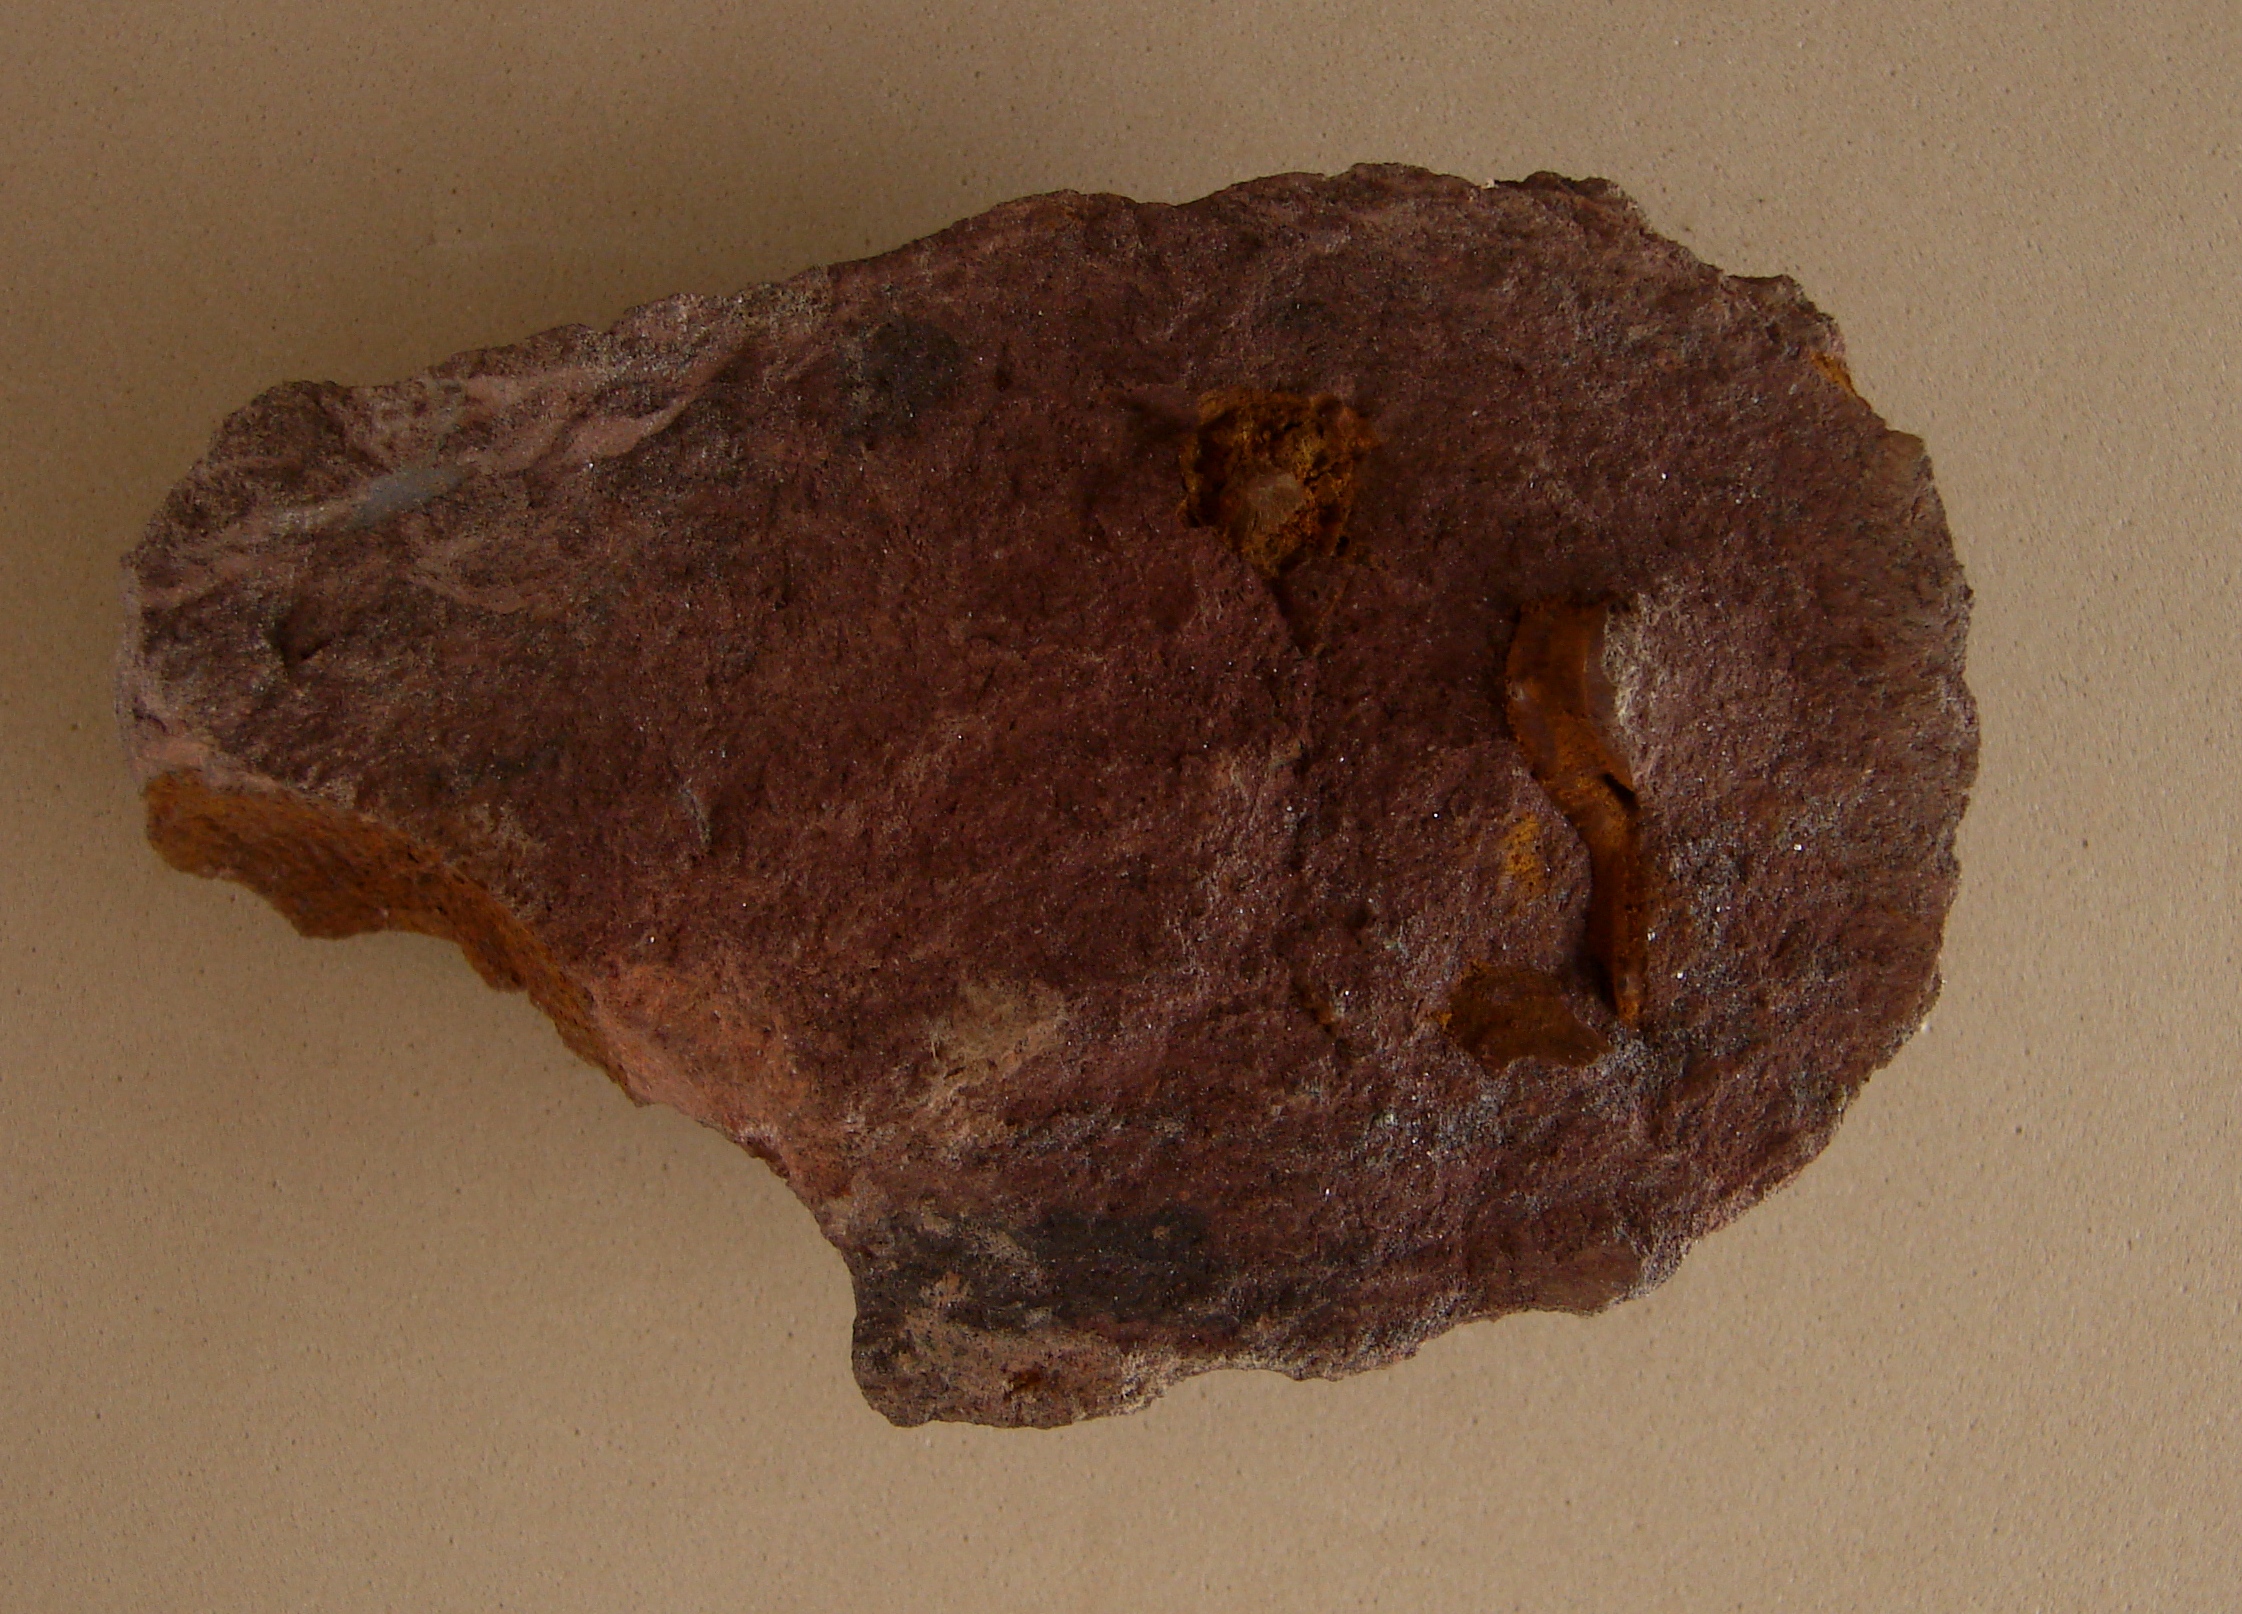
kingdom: Animalia
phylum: Arthropoda
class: Trilobita
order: Phacopida
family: Acastidae
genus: Pilletina
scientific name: Pilletina
